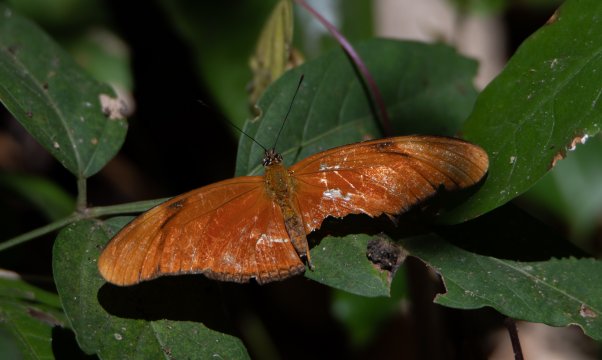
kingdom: Animalia
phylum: Arthropoda
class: Insecta
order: Lepidoptera
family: Nymphalidae
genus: Dryas
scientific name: Dryas iulia
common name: Julia
